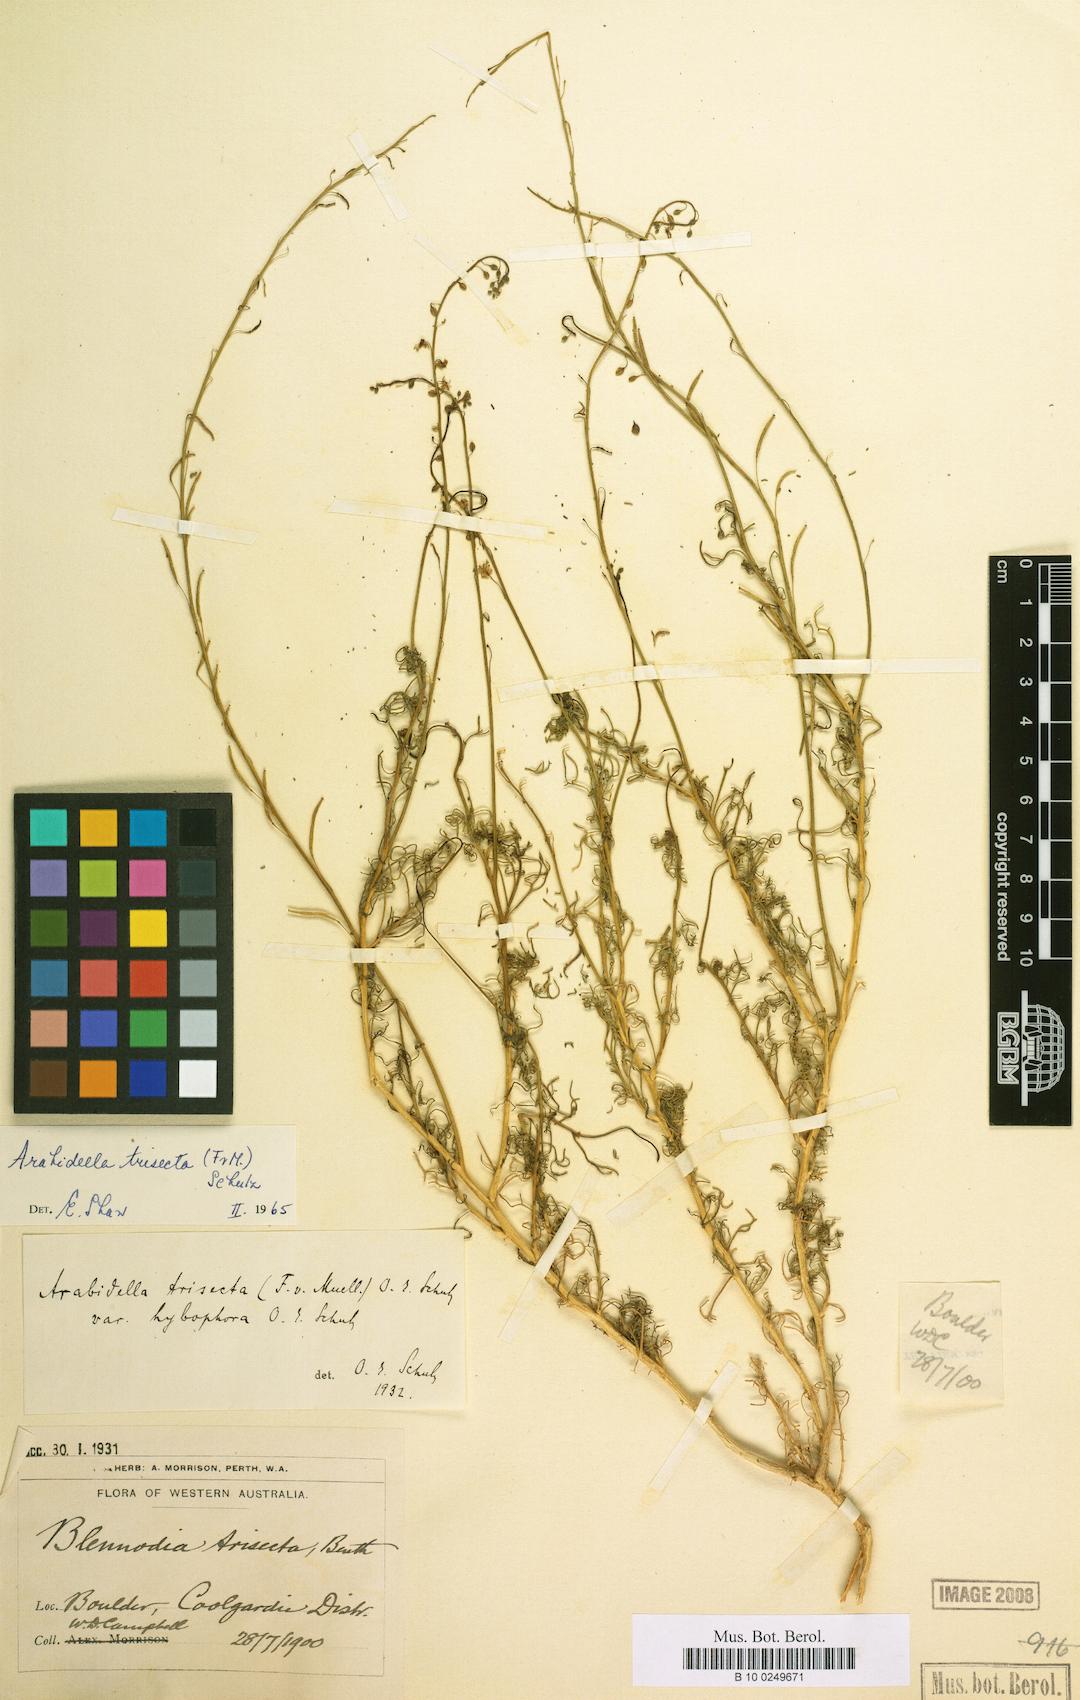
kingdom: Plantae
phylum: Tracheophyta
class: Magnoliopsida
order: Brassicales
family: Brassicaceae
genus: Arabidella
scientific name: Arabidella trisecta
